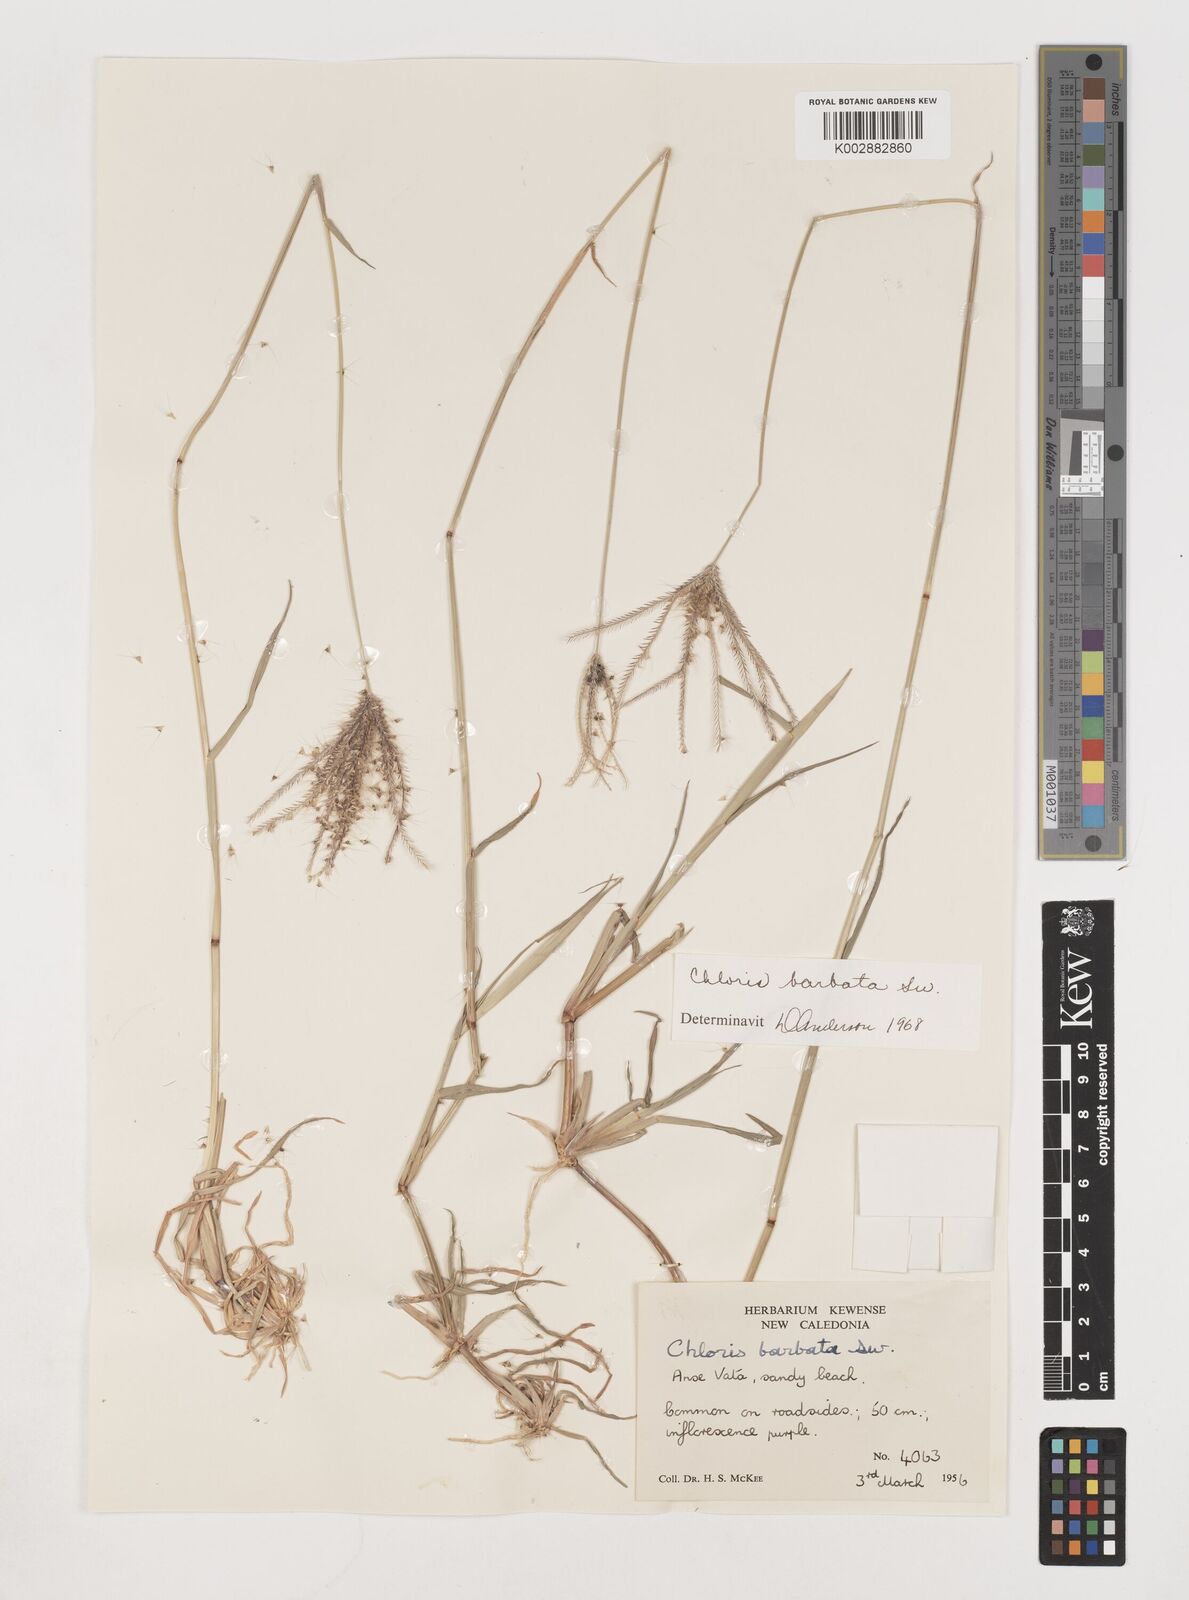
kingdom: Plantae
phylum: Tracheophyta
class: Liliopsida
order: Poales
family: Poaceae
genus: Chloris
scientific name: Chloris barbata
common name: Swollen fingergrass
